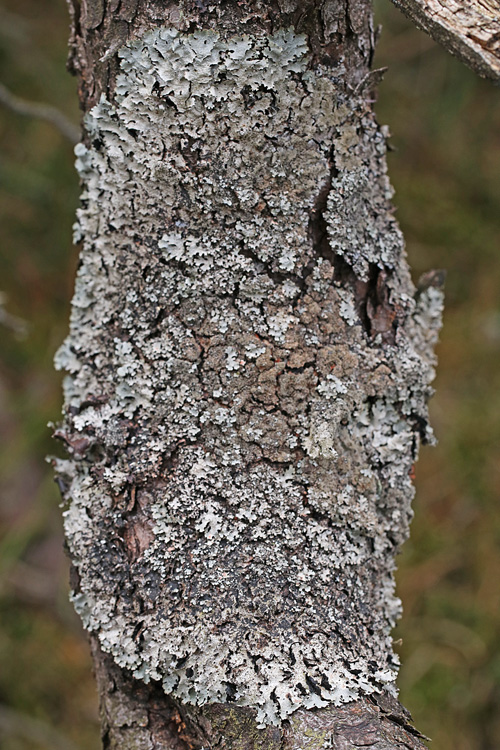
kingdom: Fungi
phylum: Ascomycota
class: Lecanoromycetes
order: Lecanorales
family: Parmeliaceae
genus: Parmelia
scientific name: Parmelia saxatilis
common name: farve-skållav
